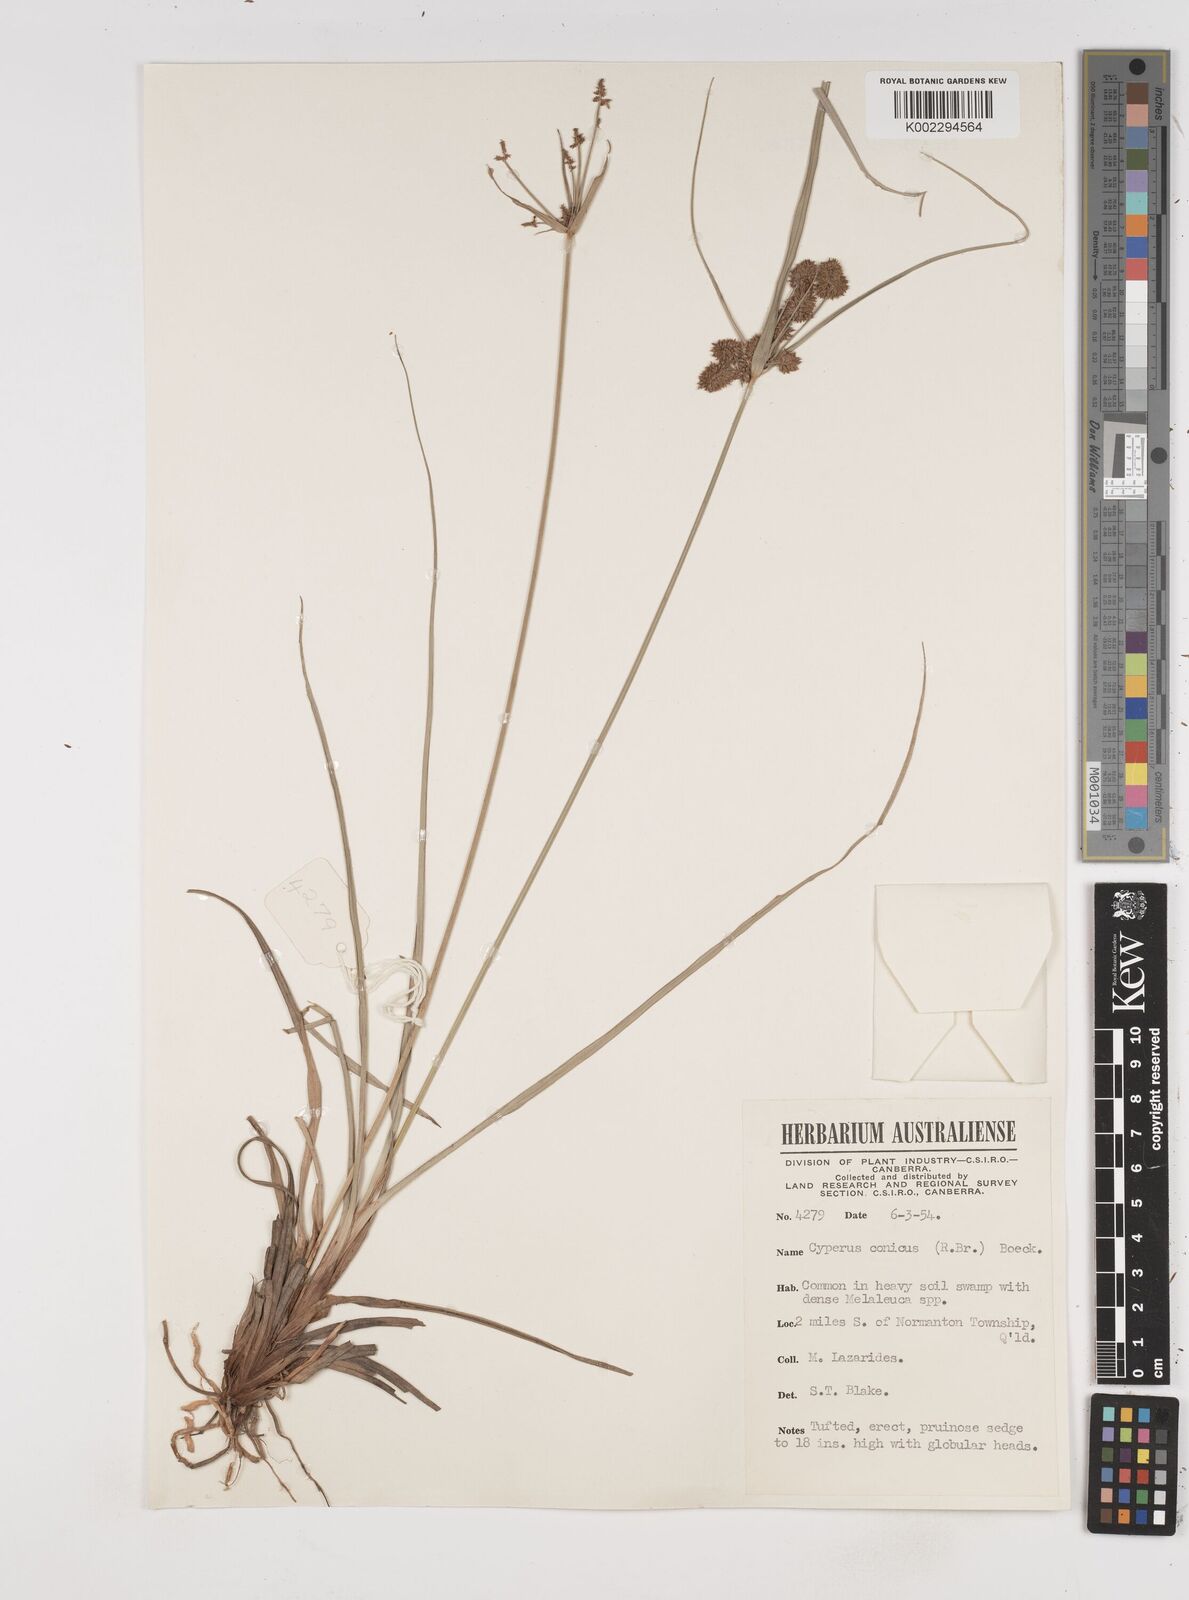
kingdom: Plantae
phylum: Tracheophyta
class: Liliopsida
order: Poales
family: Cyperaceae
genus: Cyperus
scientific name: Cyperus conicus
